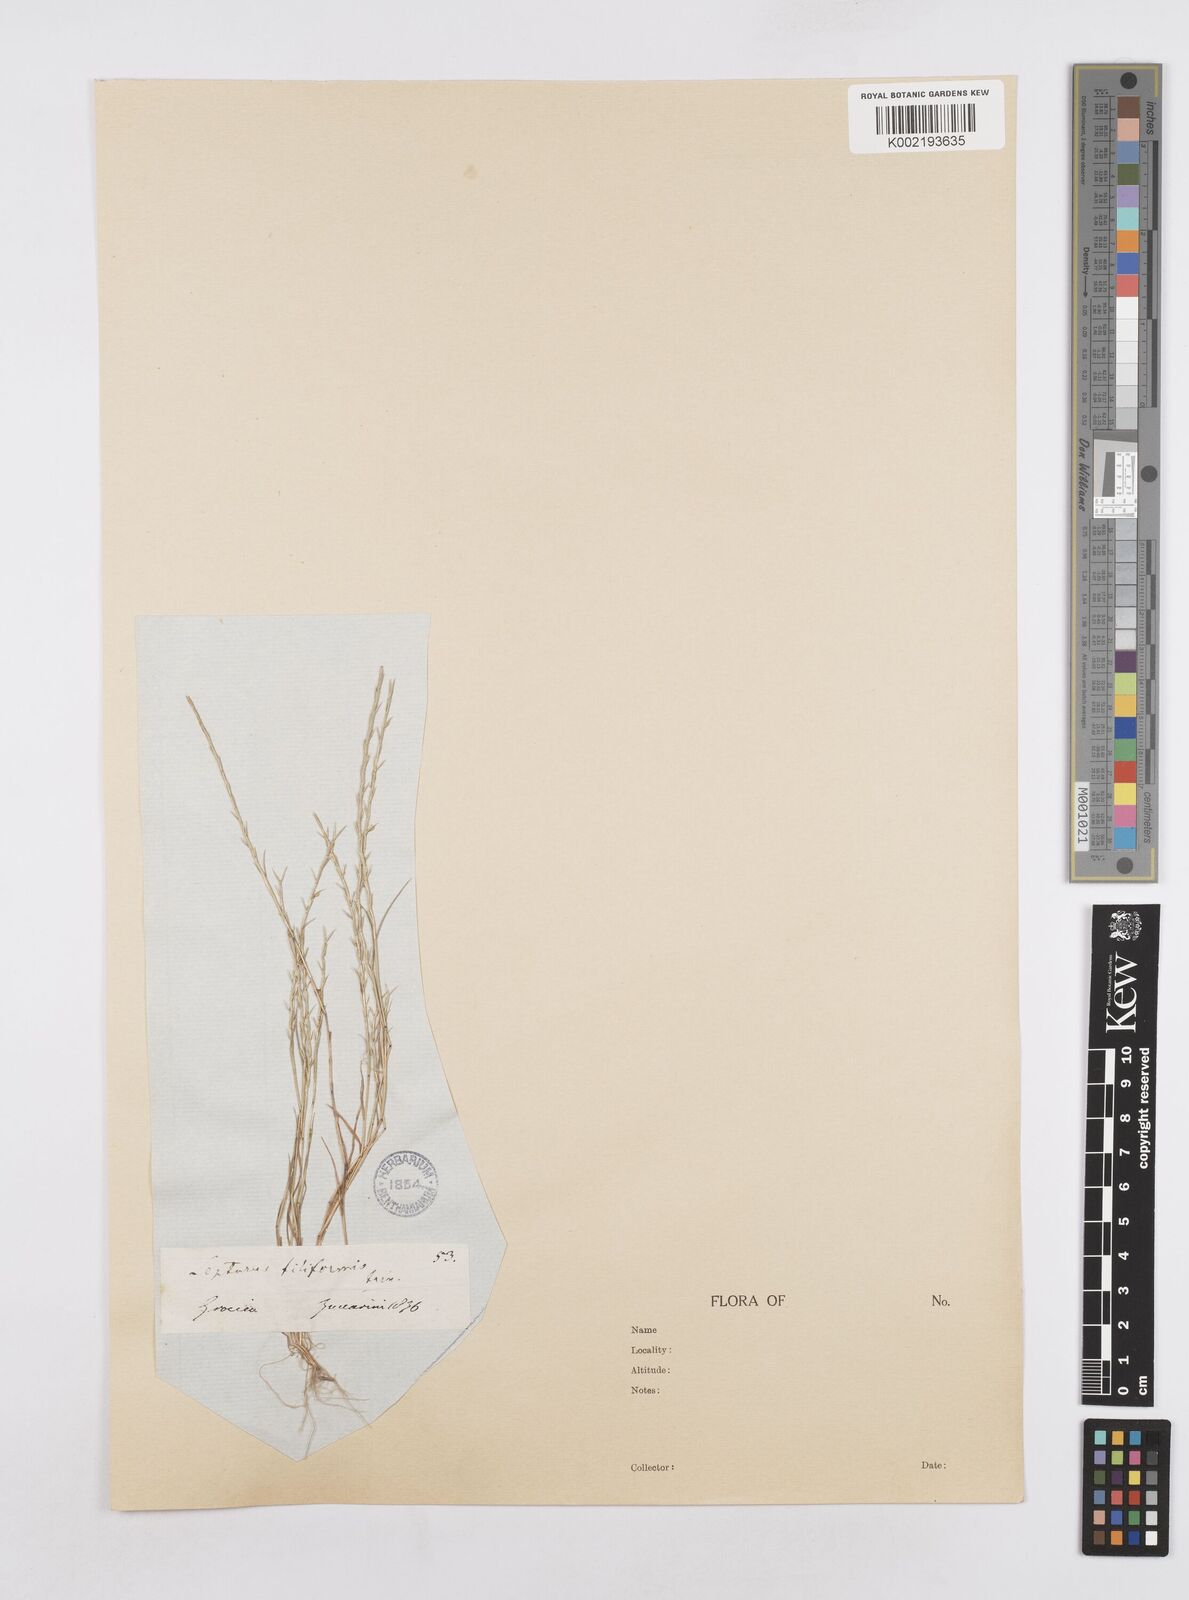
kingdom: Plantae
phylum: Tracheophyta
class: Liliopsida
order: Poales
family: Poaceae
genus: Parapholis
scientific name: Parapholis filiformis
